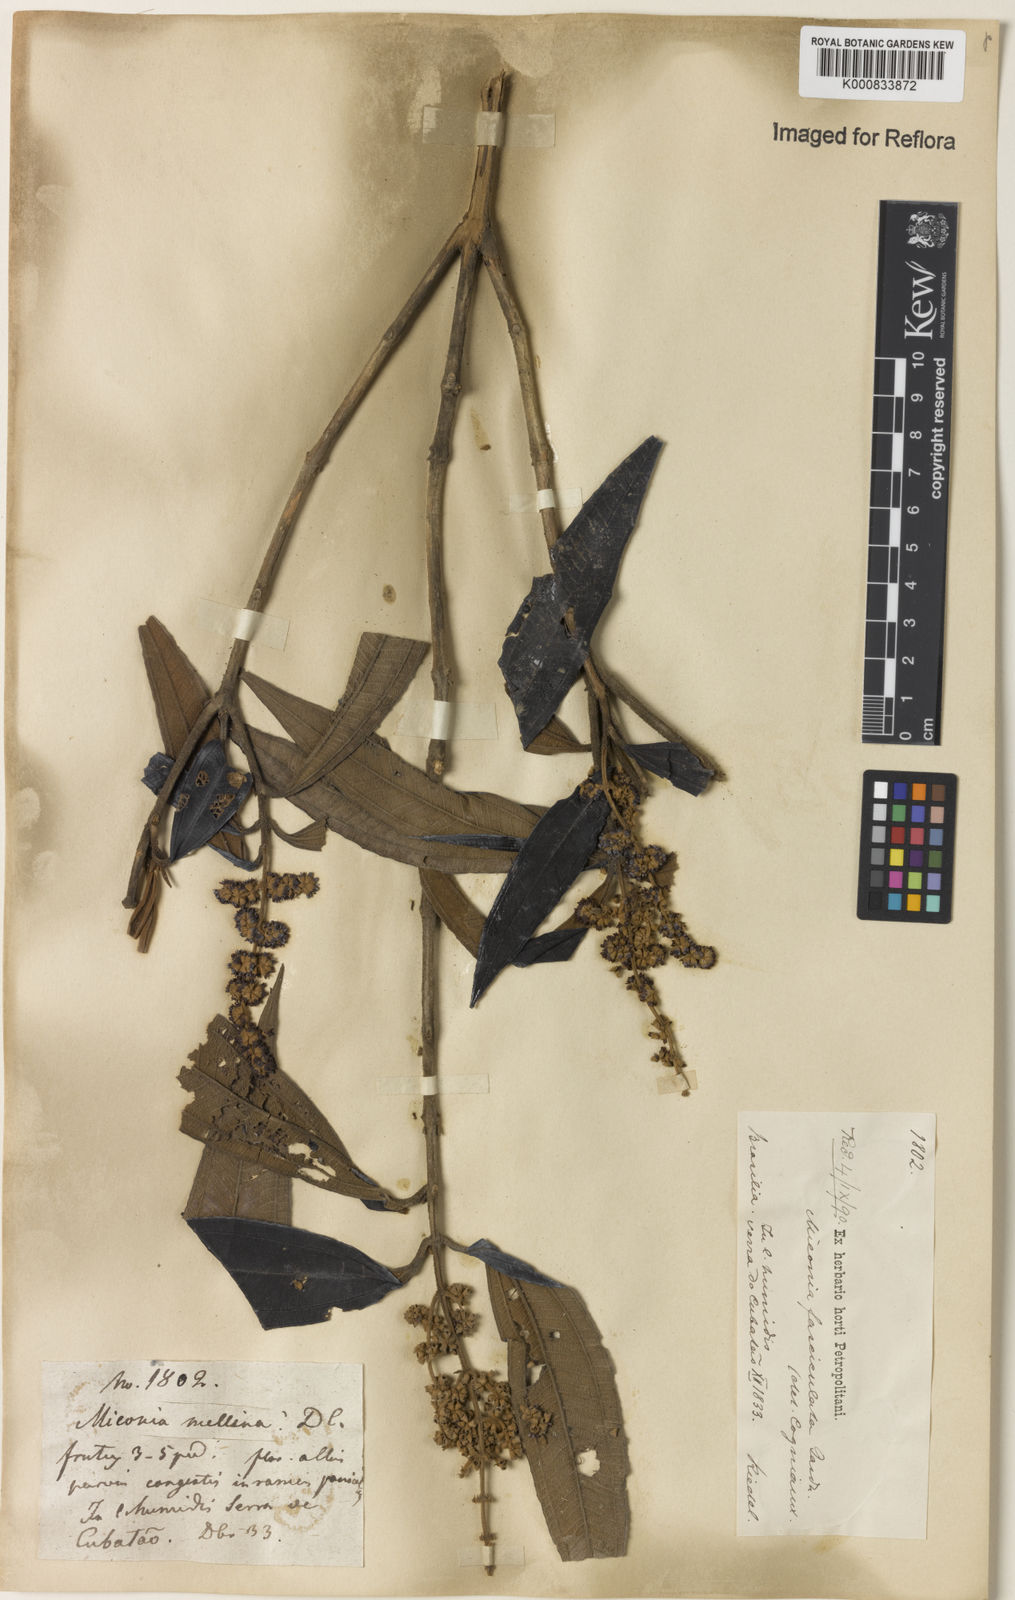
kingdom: Plantae
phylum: Tracheophyta
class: Magnoliopsida
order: Myrtales
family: Melastomataceae
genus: Miconia
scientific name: Miconia fasciculata
